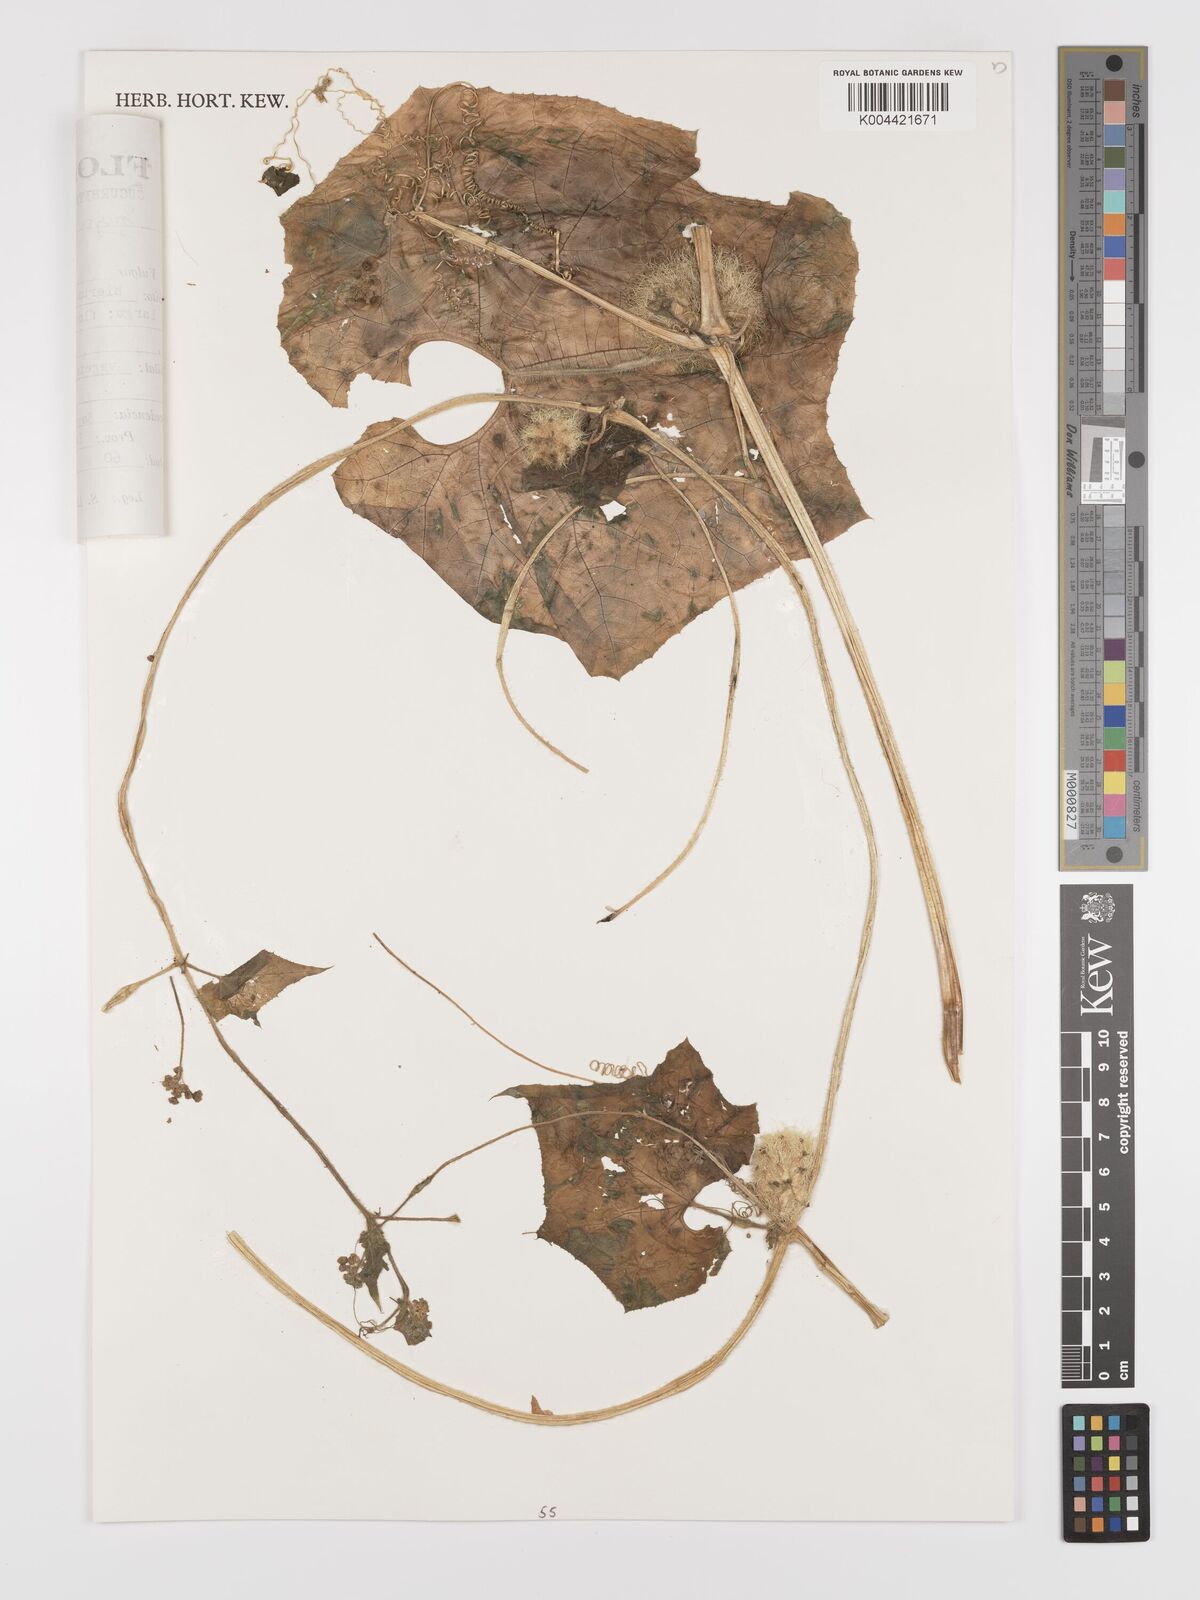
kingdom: Plantae
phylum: Tracheophyta
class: Magnoliopsida
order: Cucurbitales
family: Cucurbitaceae
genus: Sicyos
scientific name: Sicyos longisetosus
